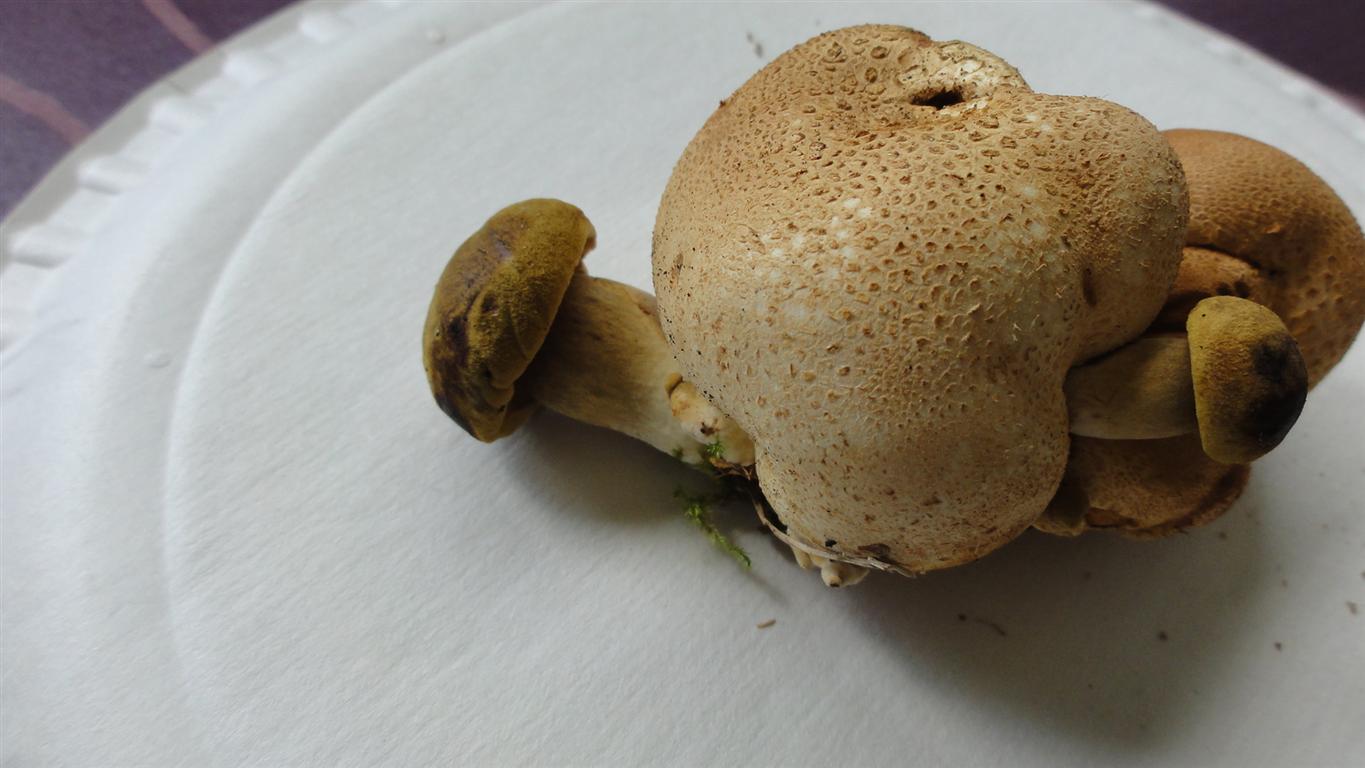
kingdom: Fungi
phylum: Basidiomycota
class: Agaricomycetes
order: Boletales
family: Boletaceae
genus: Pseudoboletus
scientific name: Pseudoboletus parasiticus
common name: snyltende rørhat
